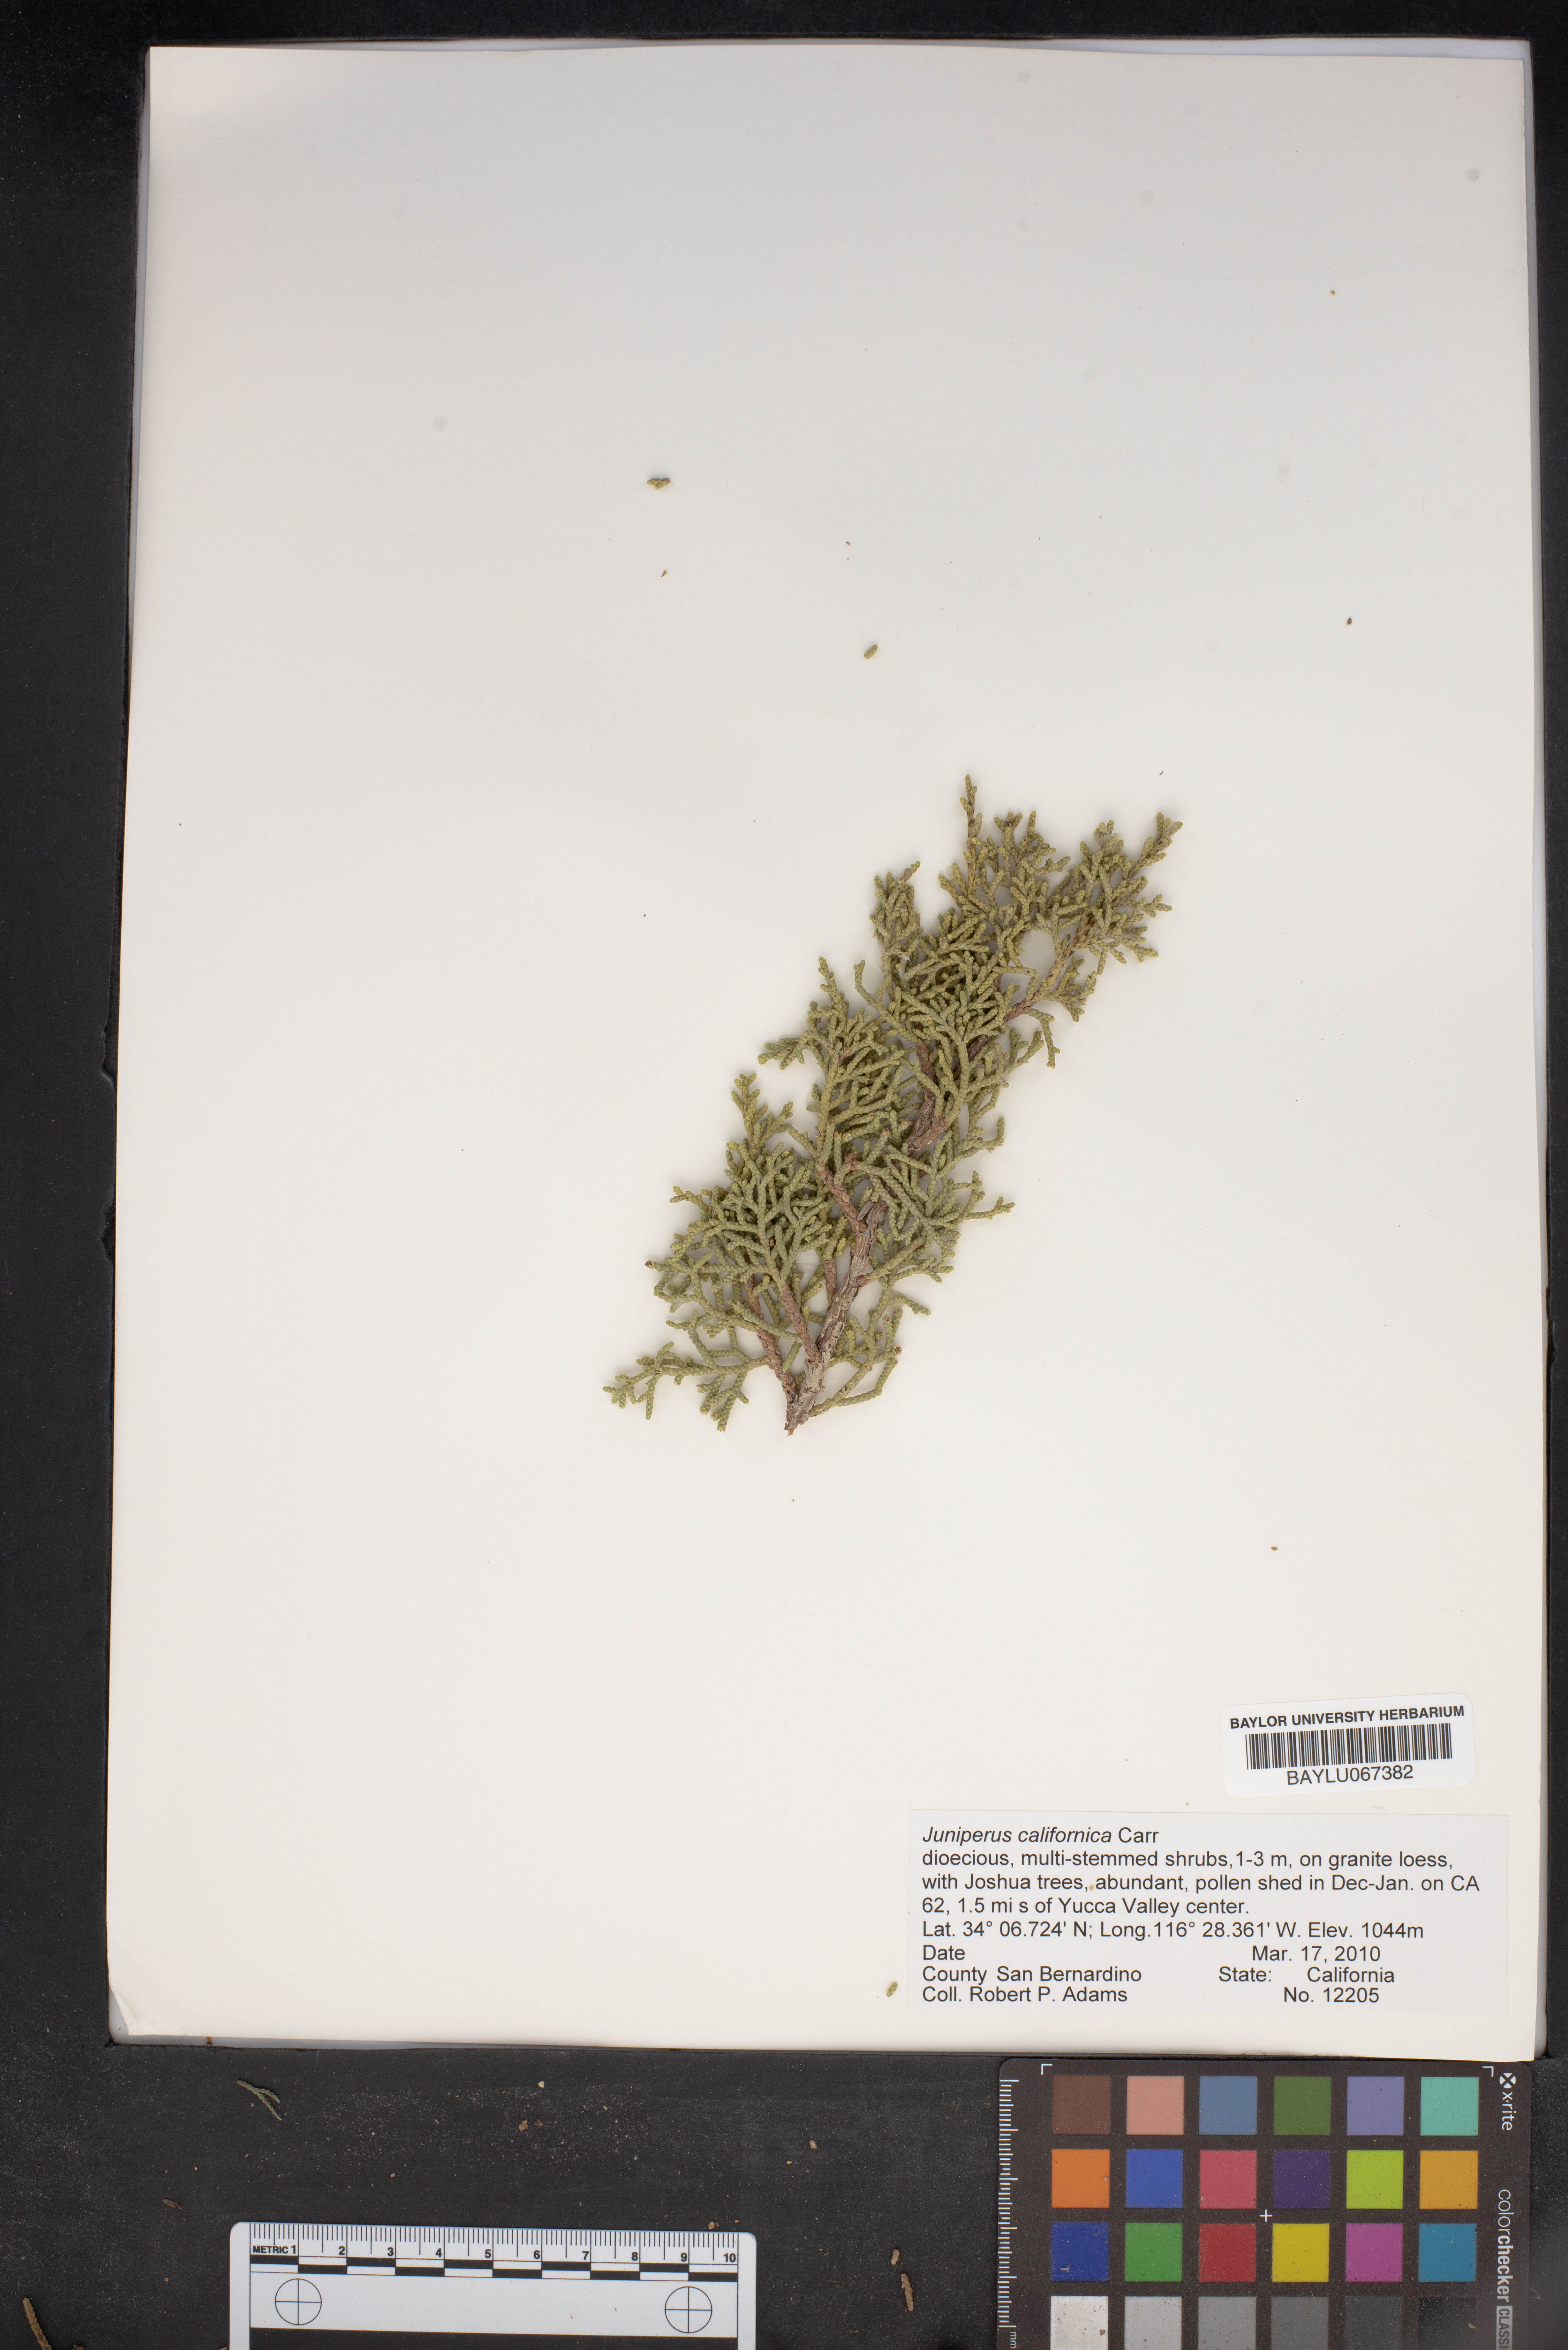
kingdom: Plantae
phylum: Tracheophyta
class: Pinopsida
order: Pinales
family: Cupressaceae
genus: Juniperus
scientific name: Juniperus californica
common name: California juniper
